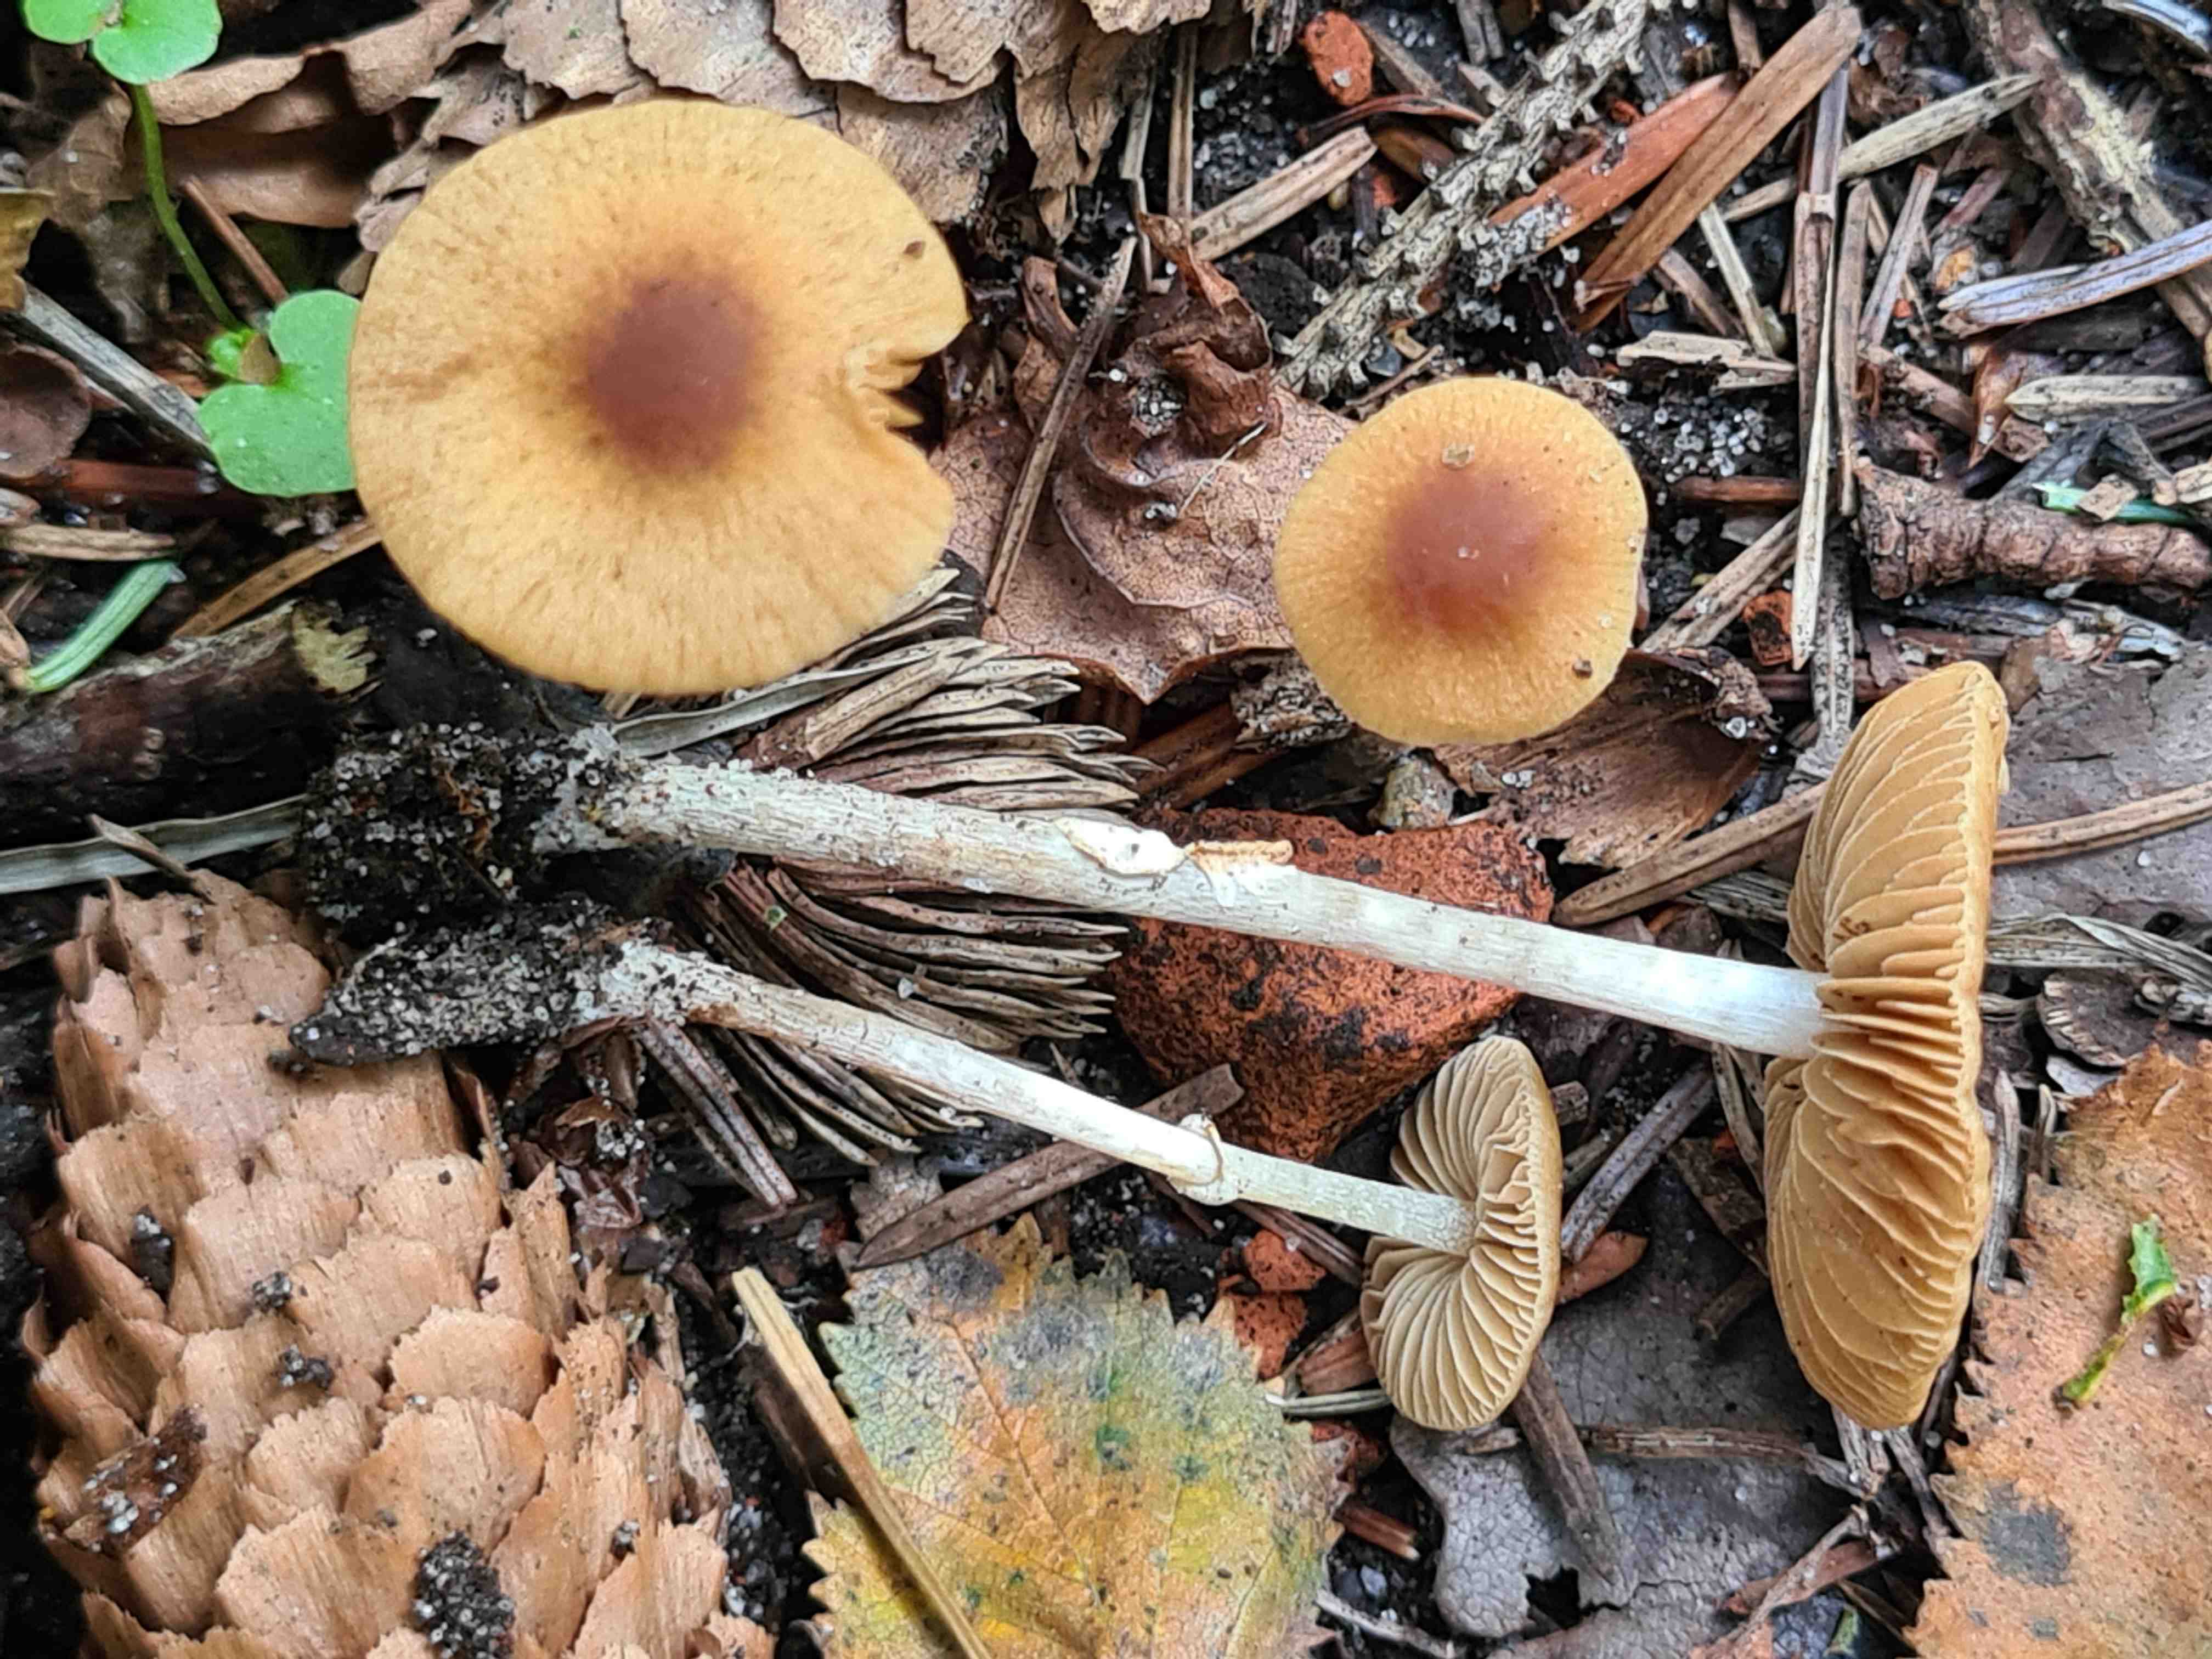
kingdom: Fungi
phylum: Basidiomycota
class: Agaricomycetes
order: Agaricales
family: Bolbitiaceae
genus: Conocybe
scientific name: Conocybe arrhenii
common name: ring-dansehat
